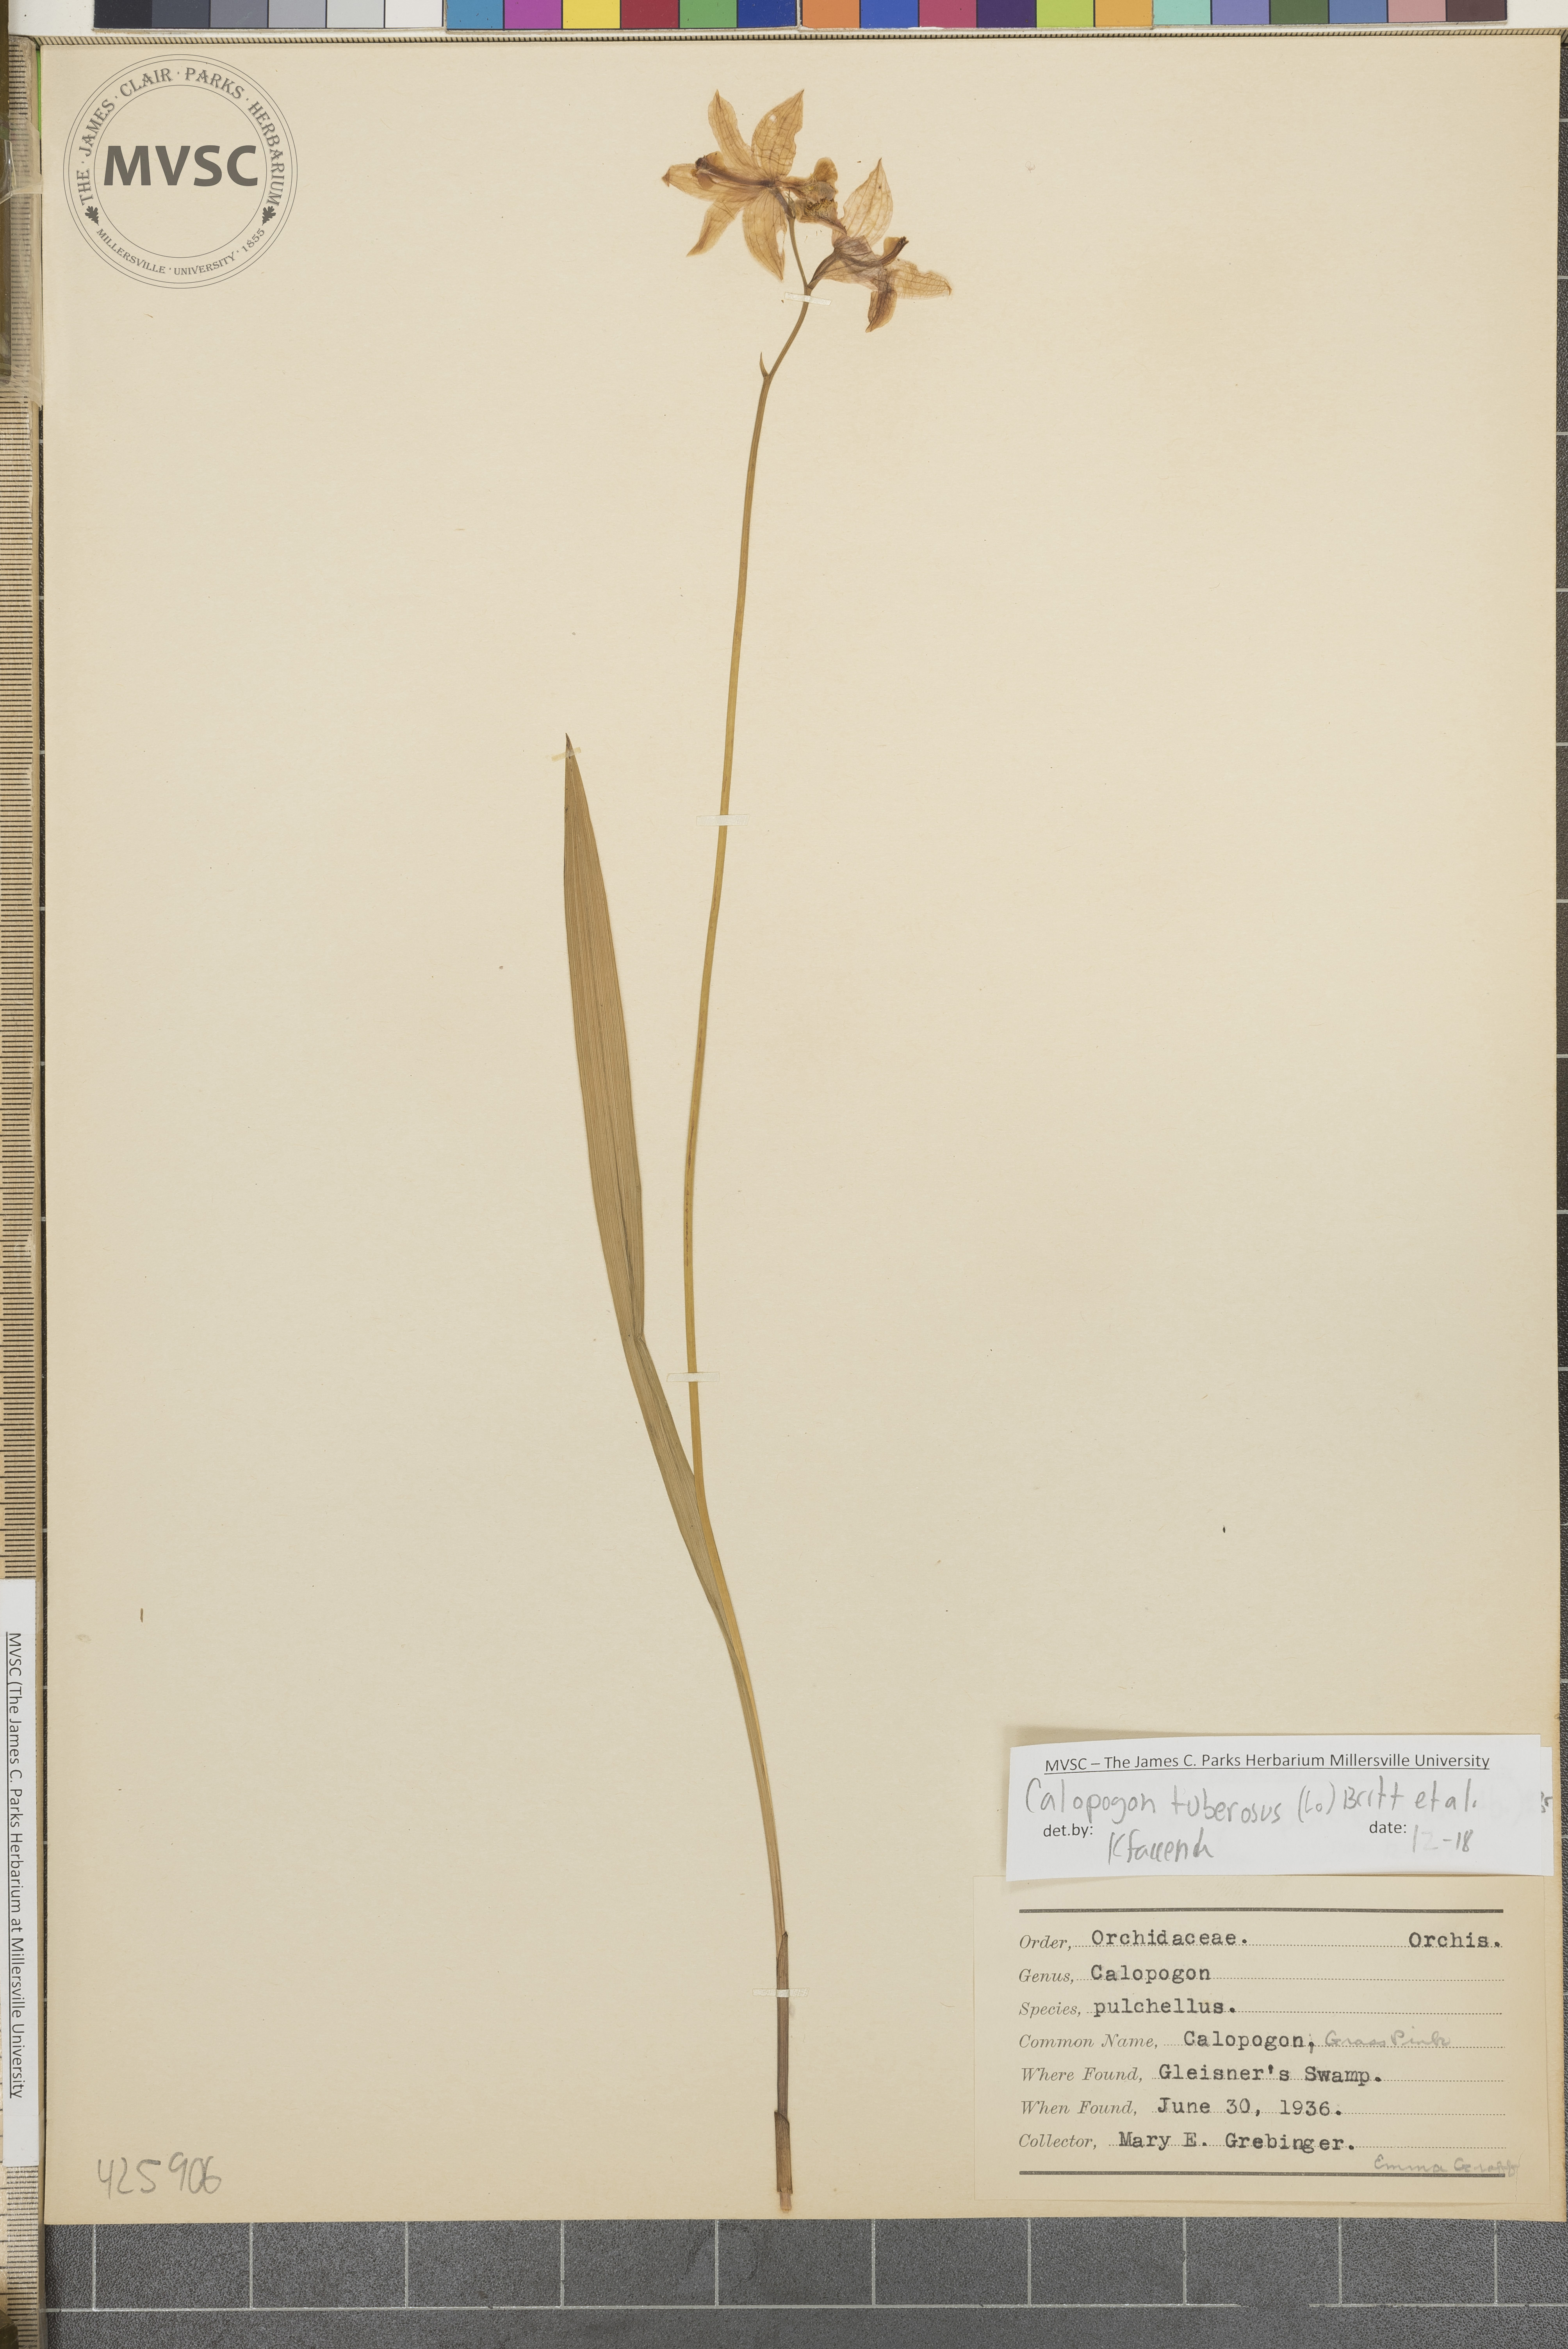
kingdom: Plantae
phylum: Tracheophyta
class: Liliopsida
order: Asparagales
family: Orchidaceae
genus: Calopogon
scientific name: Calopogon tuberosus
